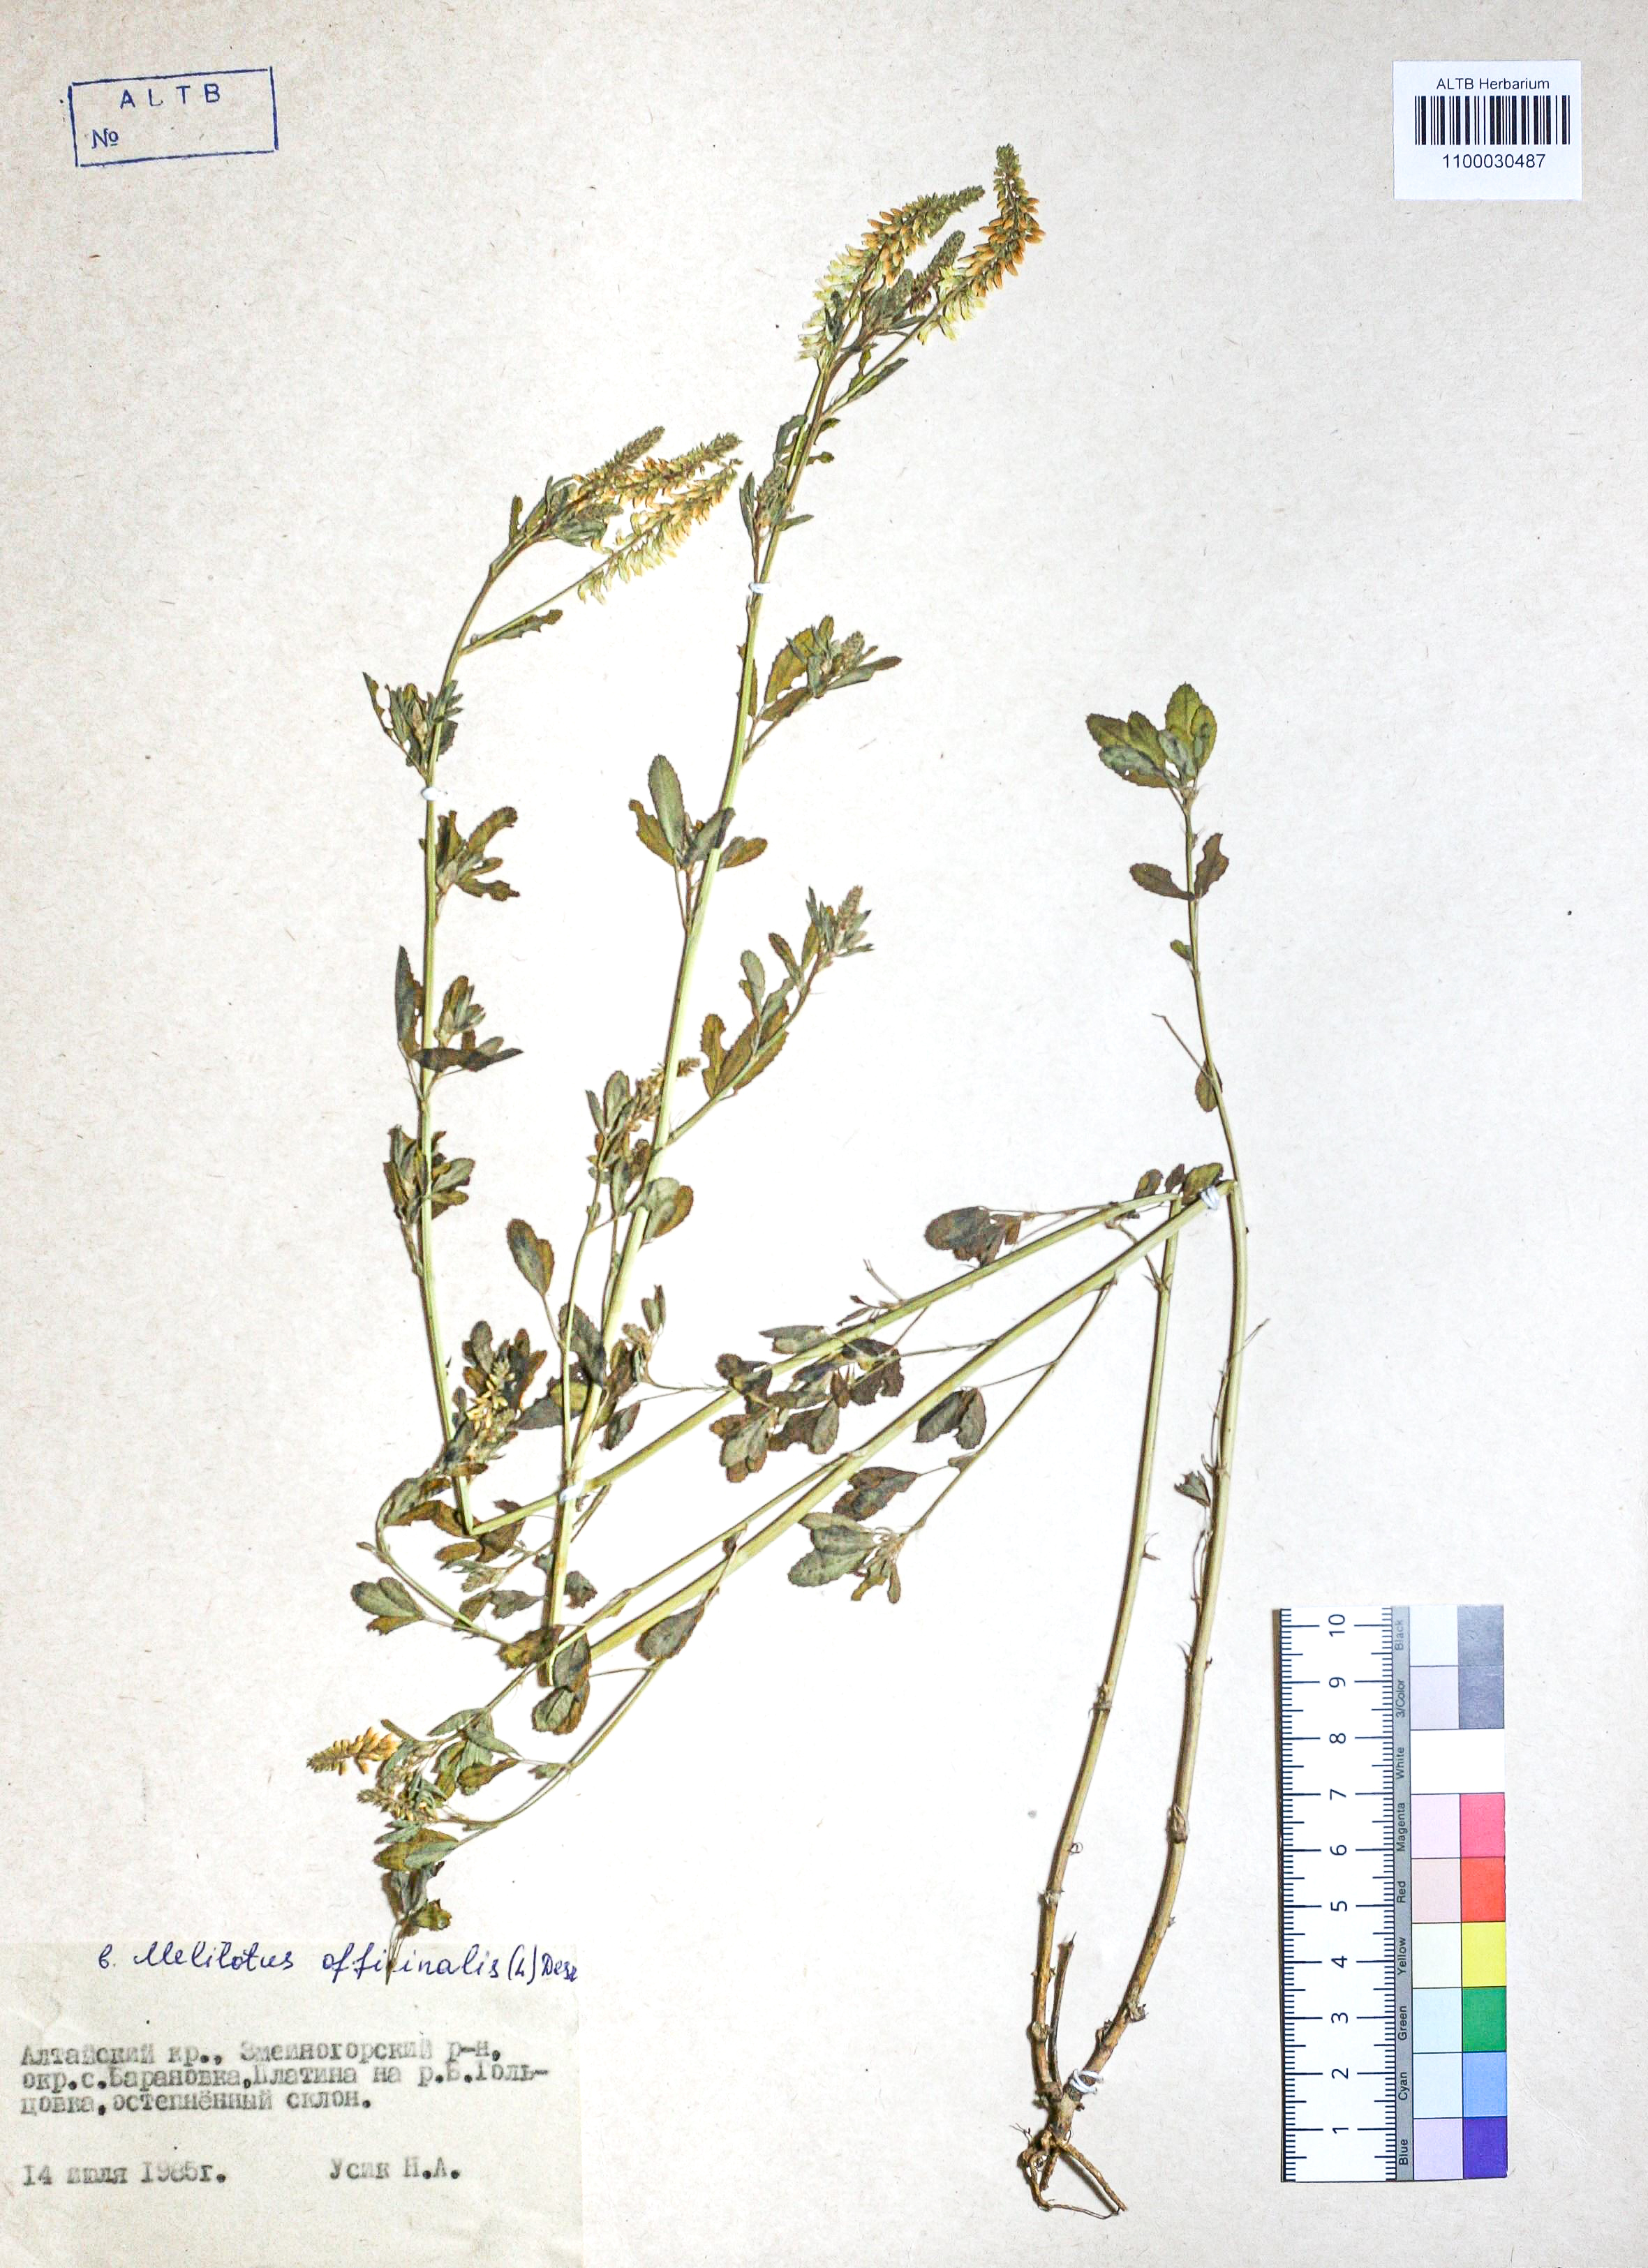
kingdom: Plantae
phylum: Tracheophyta
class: Magnoliopsida
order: Fabales
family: Fabaceae
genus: Melilotus
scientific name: Melilotus officinalis
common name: Sweetclover
